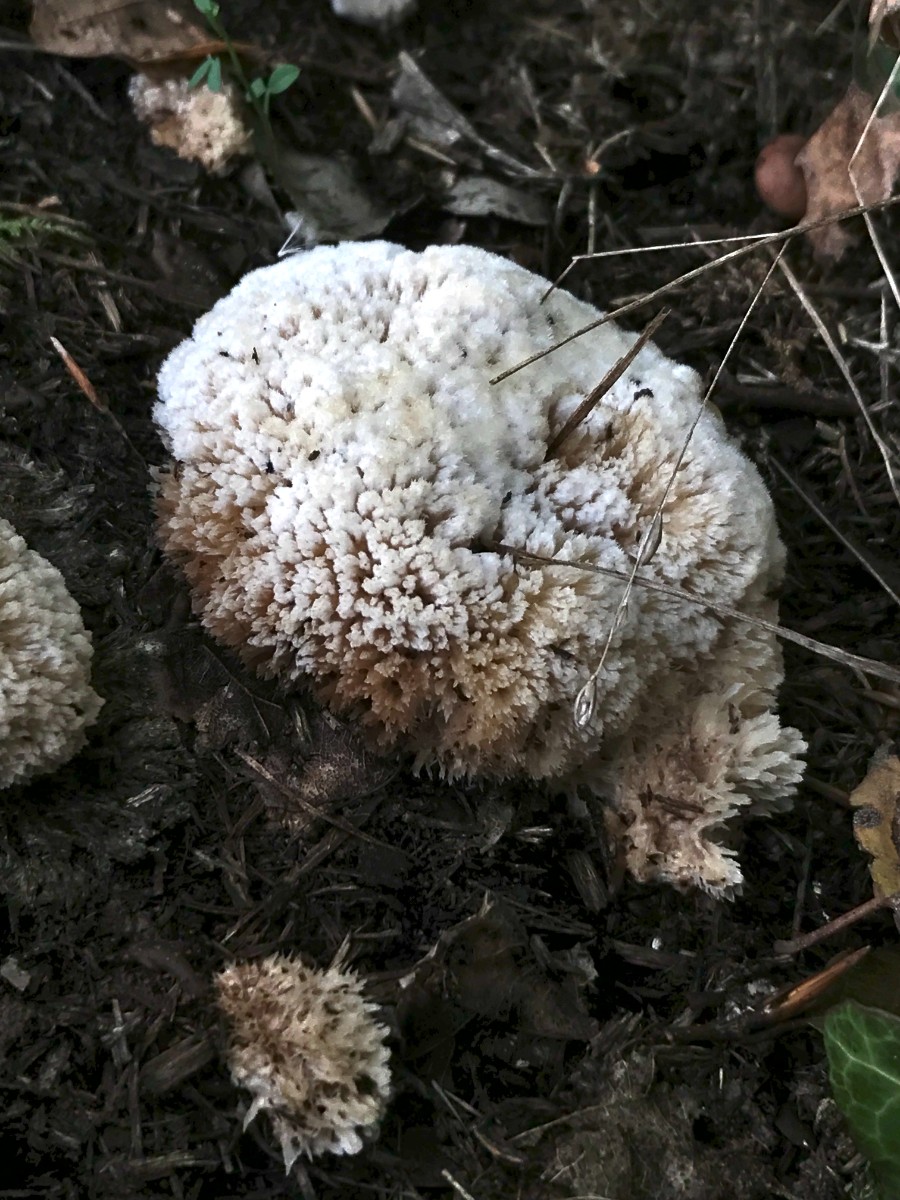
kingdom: Fungi
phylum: Basidiomycota
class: Agaricomycetes
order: Polyporales
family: Dacryobolaceae
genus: Postia
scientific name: Postia ptychogaster
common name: støvende kødporesvamp
